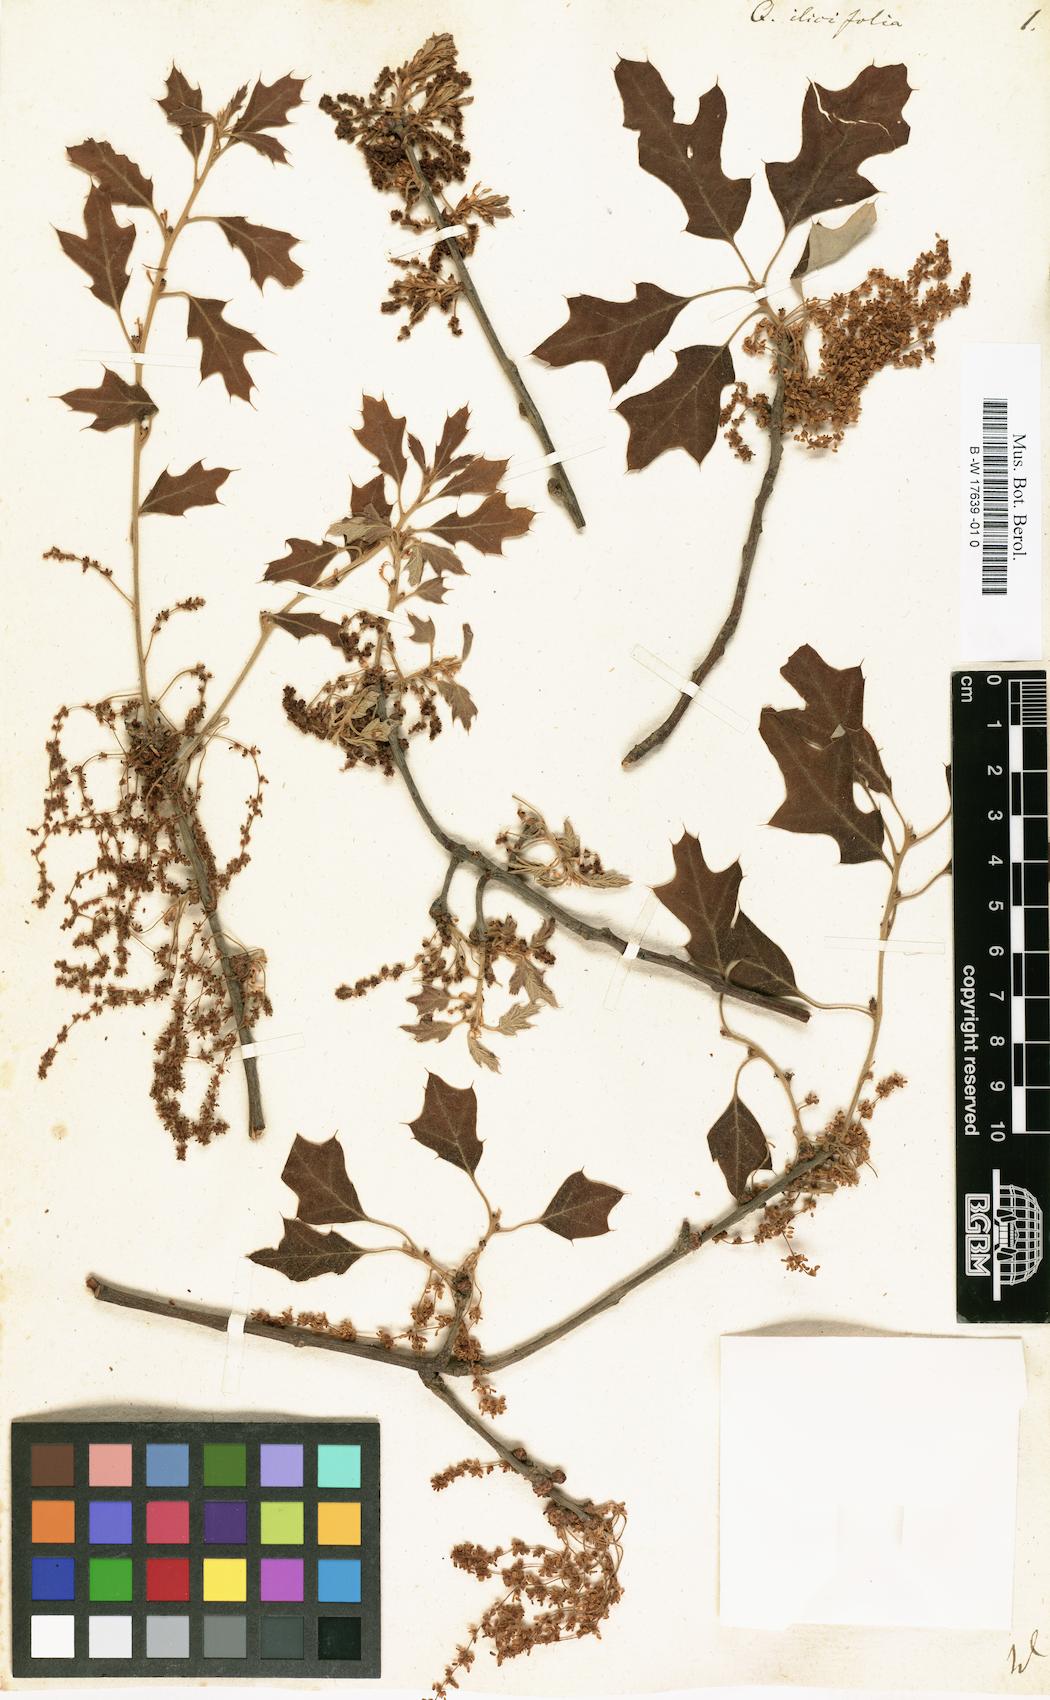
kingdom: Plantae
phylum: Tracheophyta
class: Magnoliopsida
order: Fagales
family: Fagaceae
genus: Quercus
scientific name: Quercus ilicifolia
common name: Bear oak
